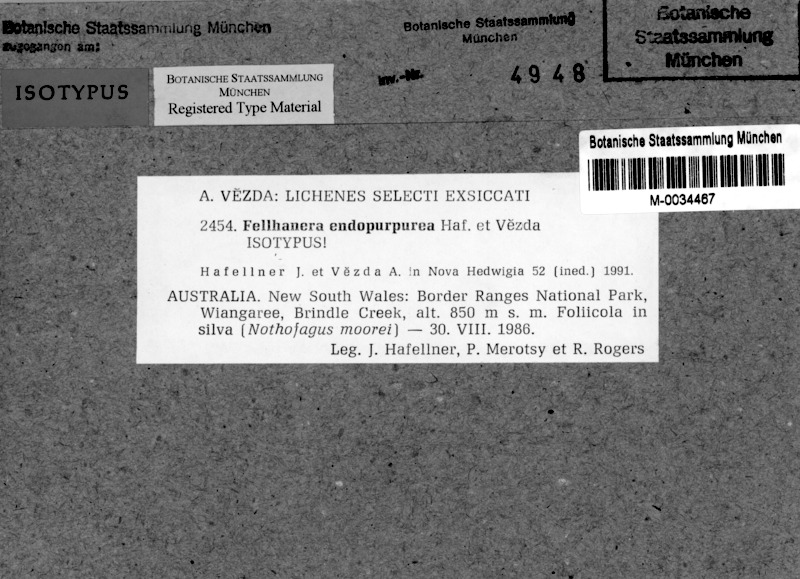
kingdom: Fungi
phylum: Ascomycota
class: Lecanoromycetes
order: Lecanorales
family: Byssolomataceae
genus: Fellhanera
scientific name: Fellhanera endopurpurea
